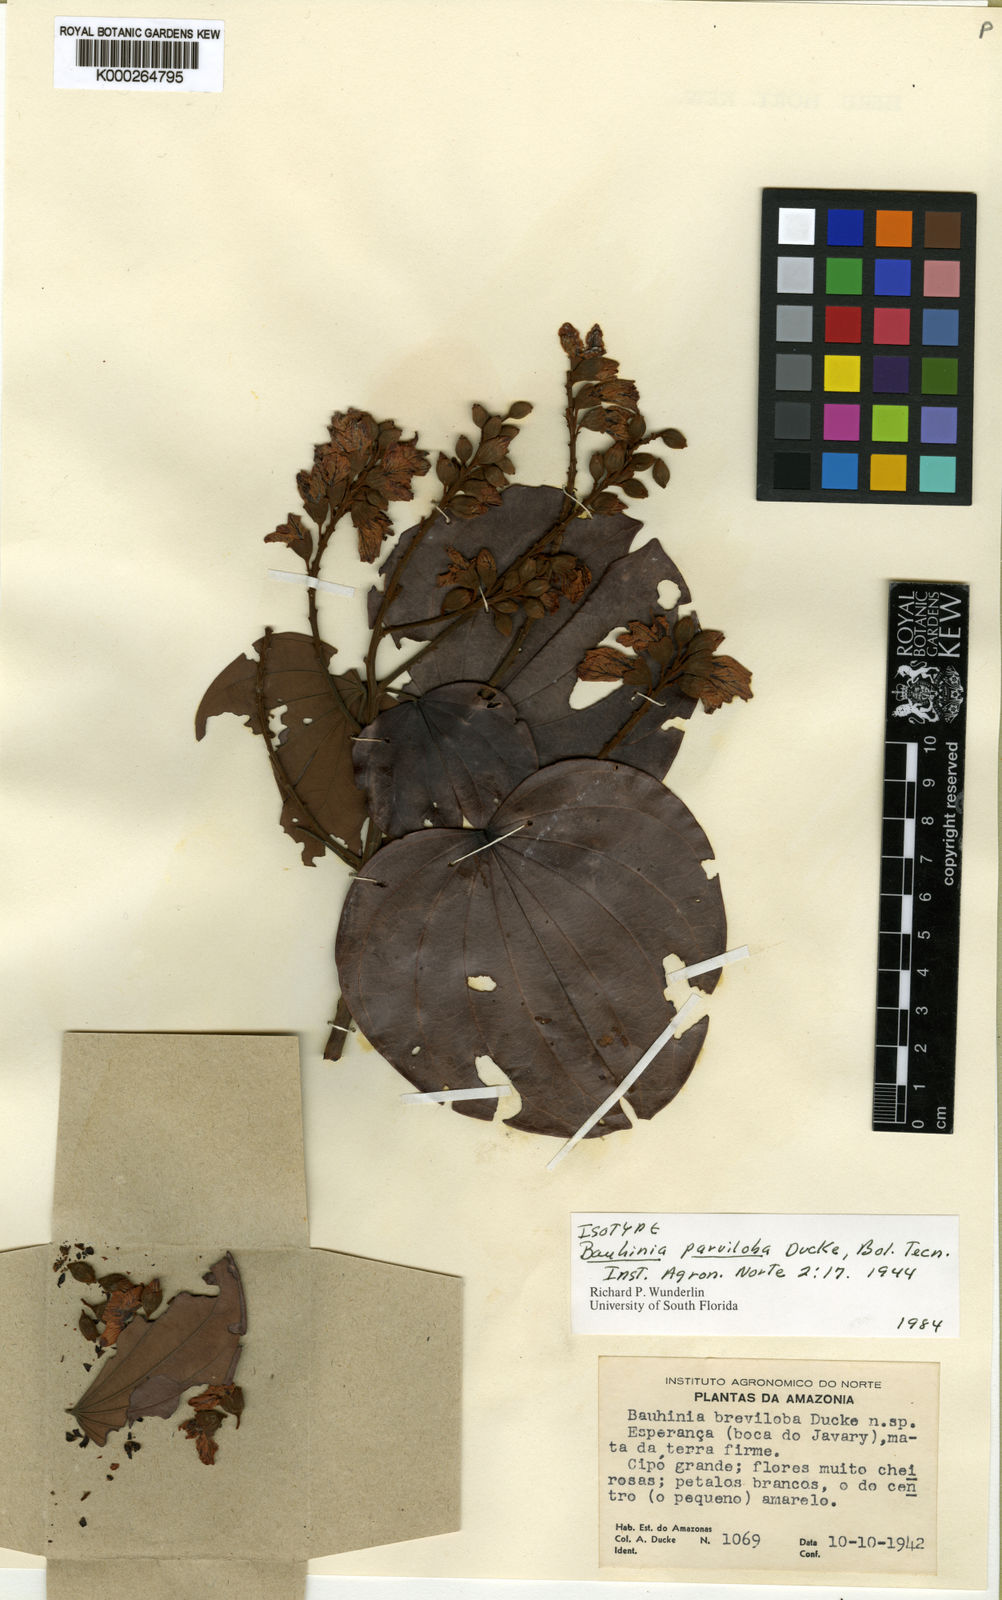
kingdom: Plantae
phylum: Tracheophyta
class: Magnoliopsida
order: Fabales
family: Fabaceae
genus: Bauhinia
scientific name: Bauhinia parviloba
